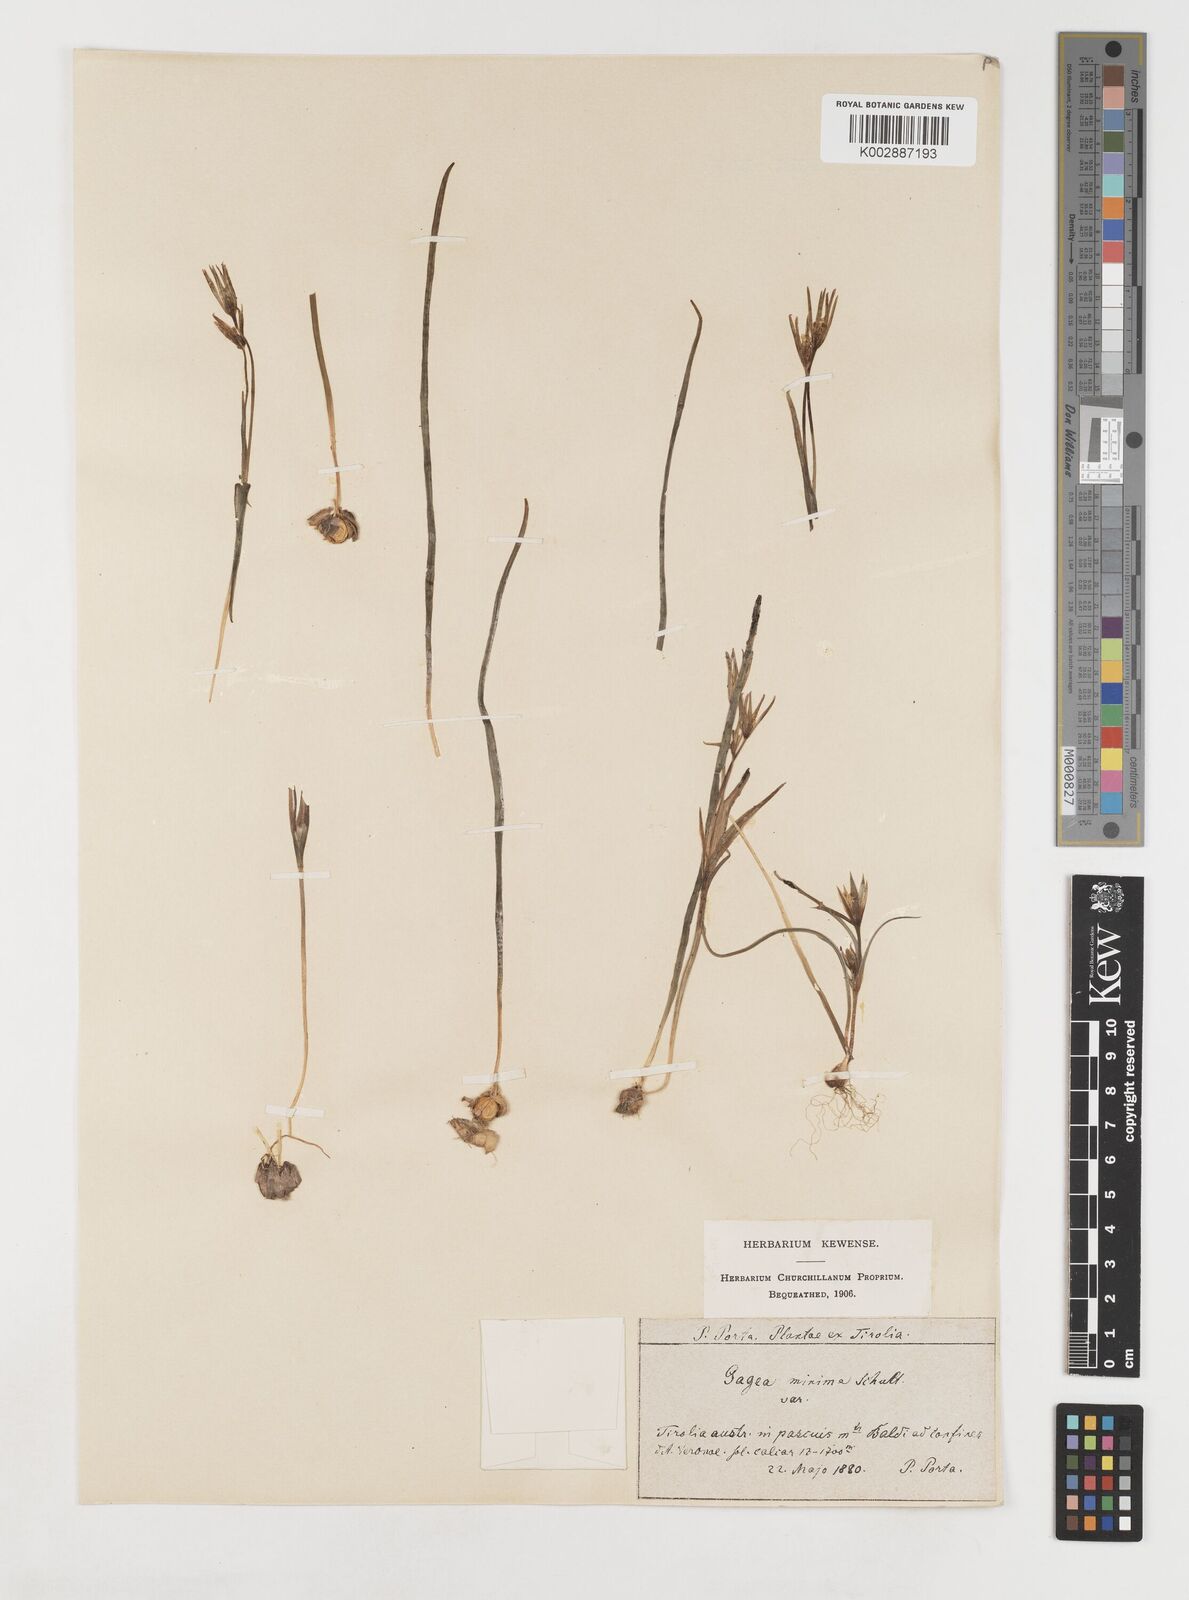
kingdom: Plantae
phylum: Tracheophyta
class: Liliopsida
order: Liliales
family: Liliaceae
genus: Gagea
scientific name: Gagea minima
